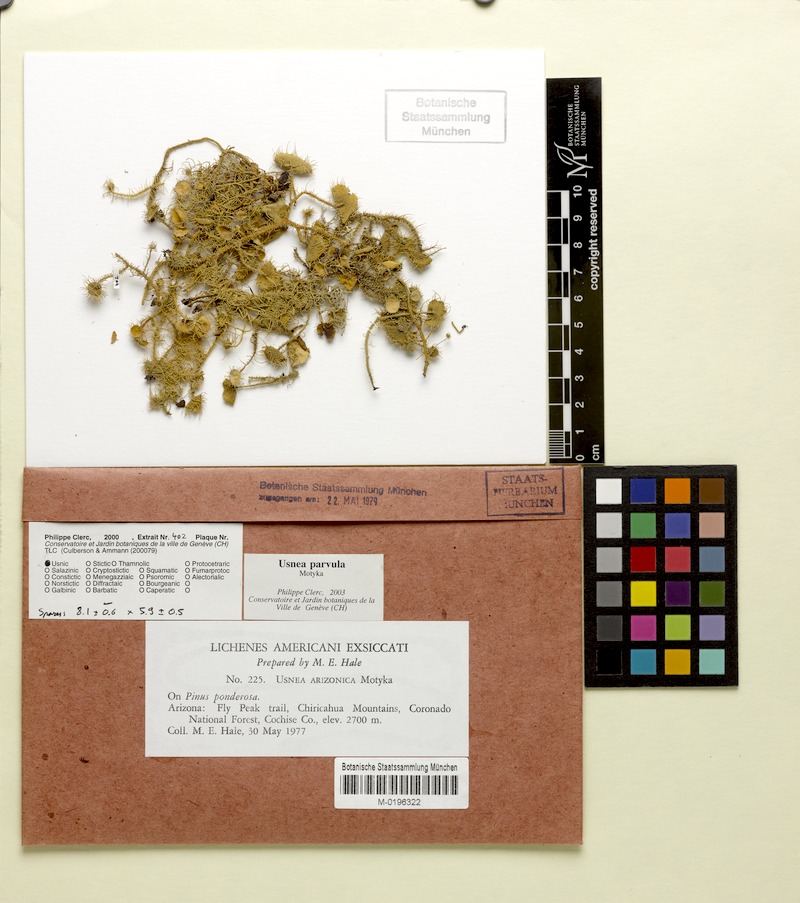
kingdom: Fungi
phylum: Ascomycota
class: Lecanoromycetes
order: Lecanorales
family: Parmeliaceae
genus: Usnea
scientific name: Usnea parvula
